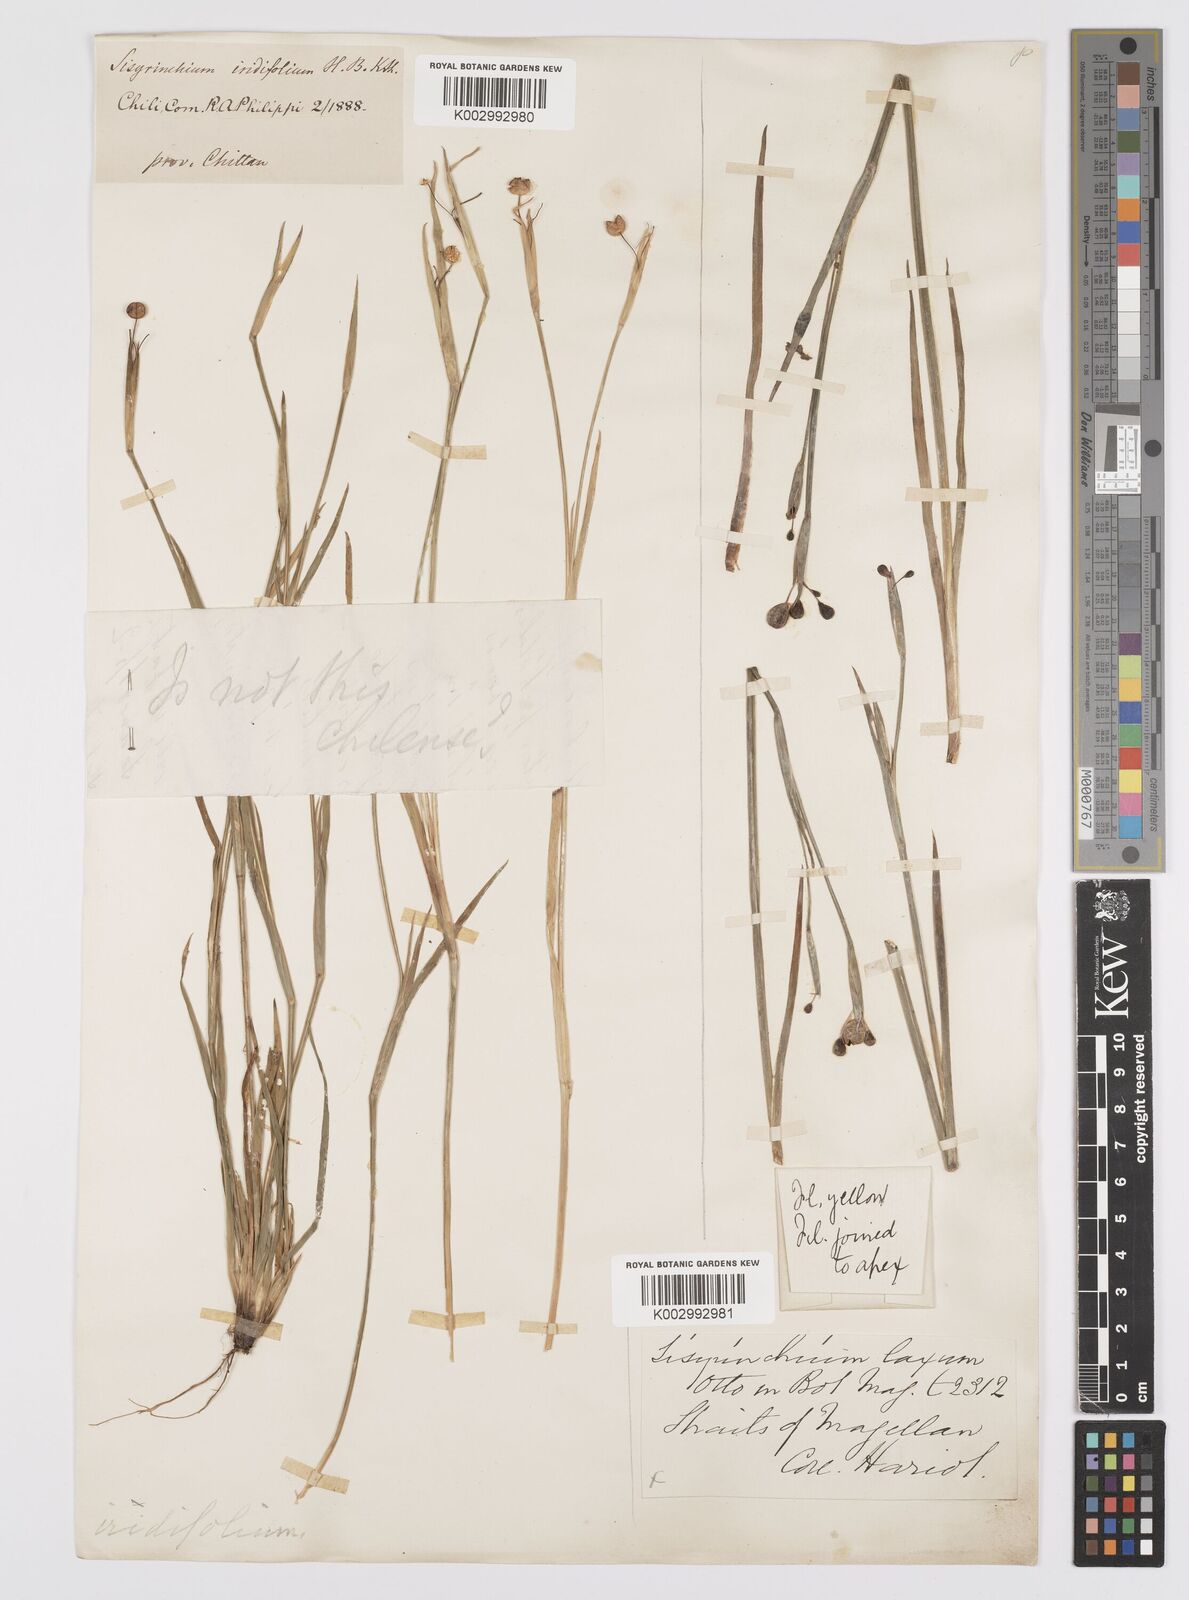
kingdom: Plantae
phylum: Tracheophyta
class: Liliopsida
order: Asparagales
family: Iridaceae
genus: Sisyrinchium
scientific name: Sisyrinchium laxum
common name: Veined yellow-eyed-grass
